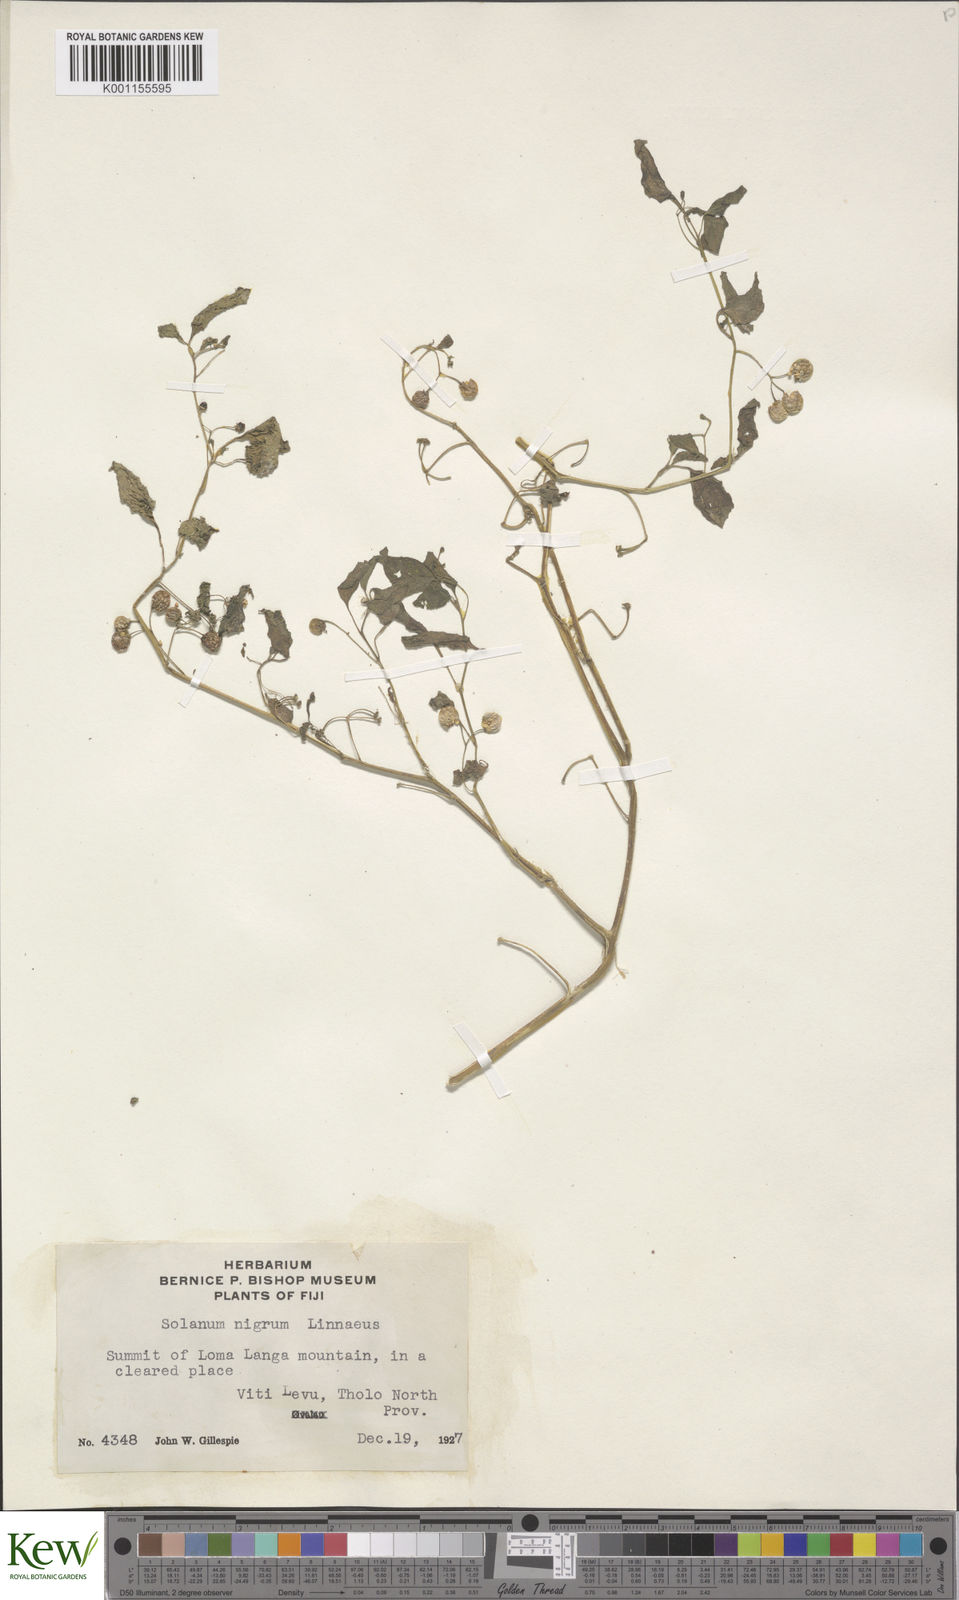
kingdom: Plantae
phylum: Tracheophyta
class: Magnoliopsida
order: Solanales
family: Solanaceae
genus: Solanum
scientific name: Solanum americanum
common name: American black nightshade
